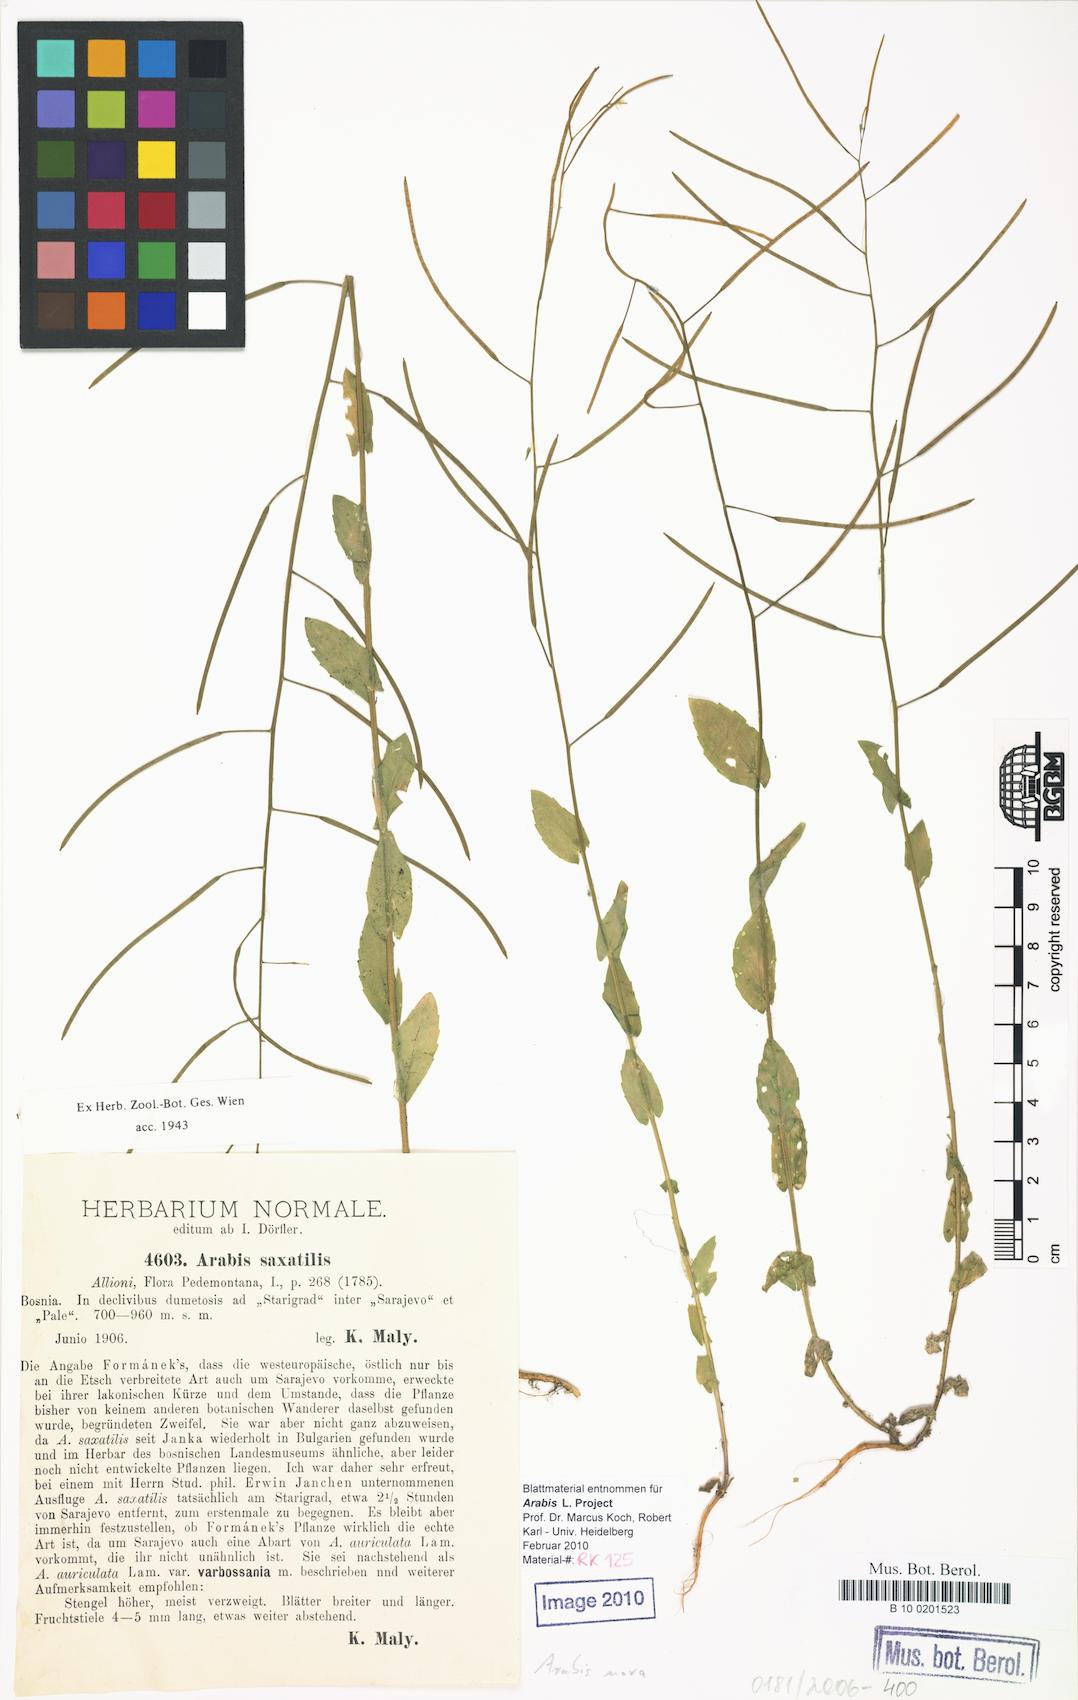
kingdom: Plantae
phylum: Tracheophyta
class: Magnoliopsida
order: Brassicales
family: Brassicaceae
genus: Arabis
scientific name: Arabis nova
